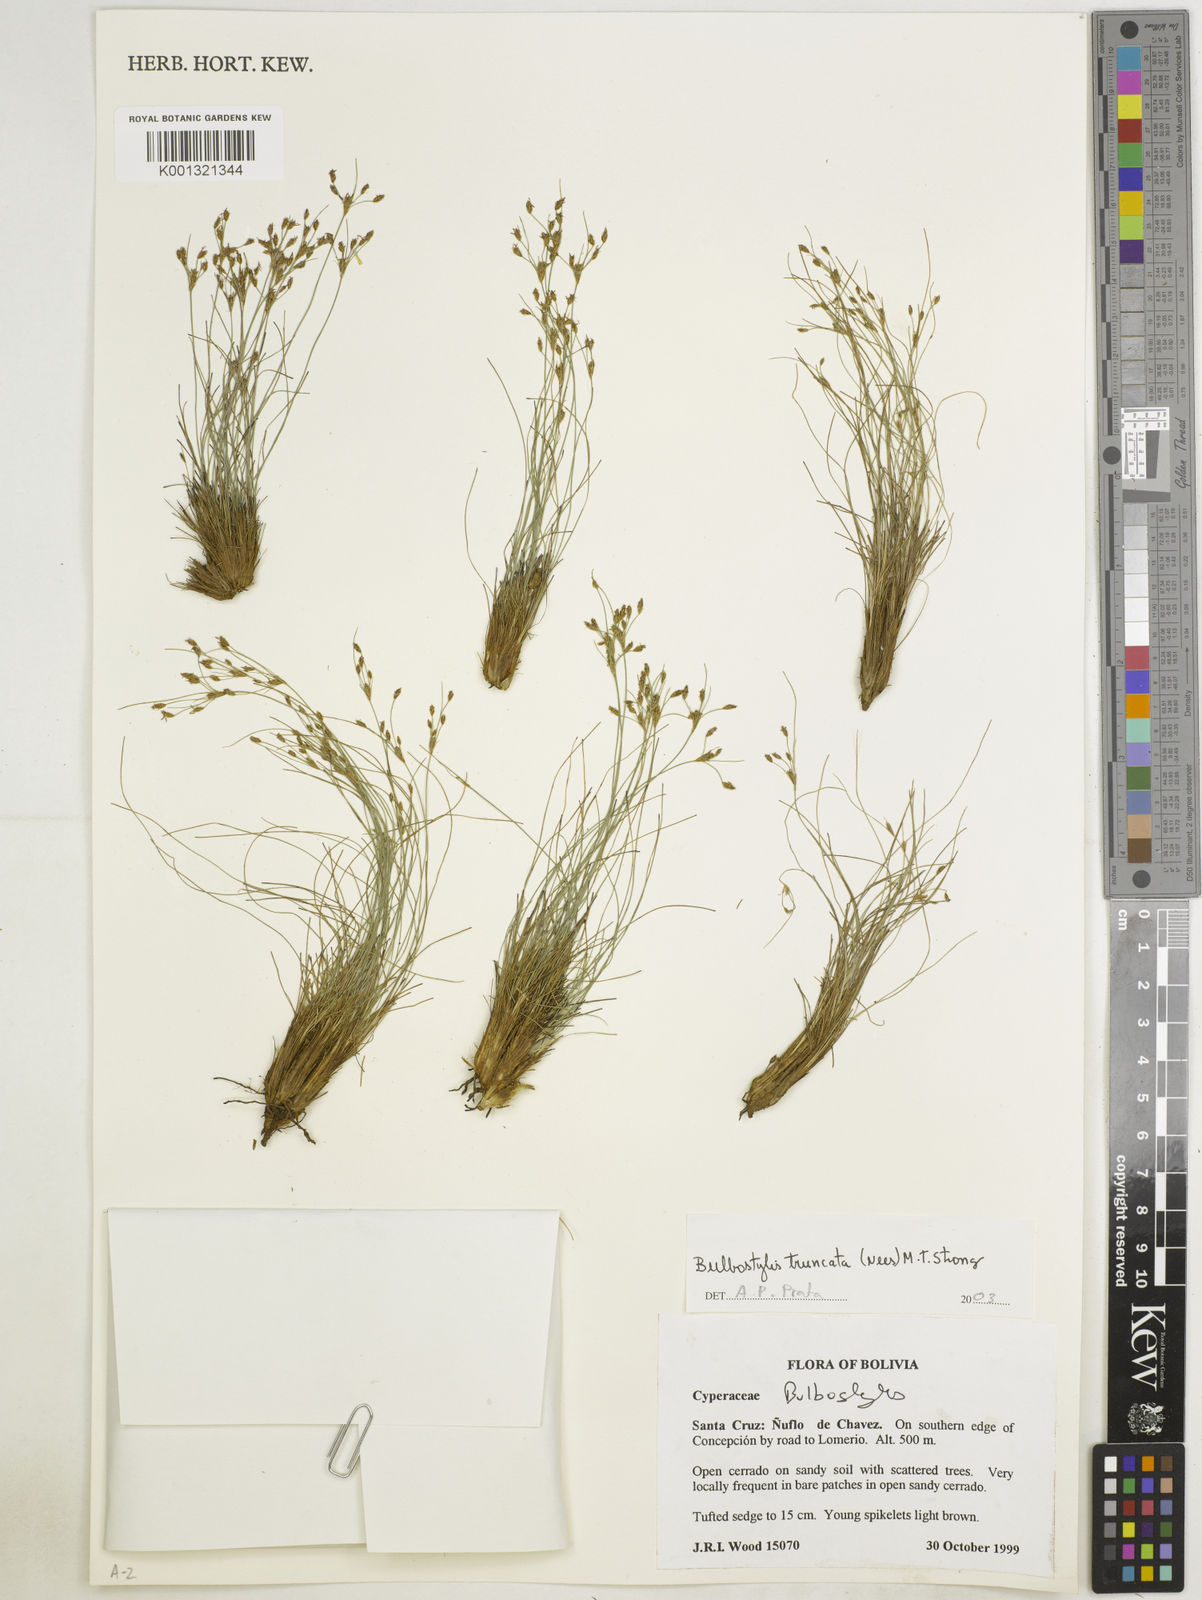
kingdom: Plantae
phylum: Tracheophyta
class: Liliopsida
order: Poales
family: Cyperaceae
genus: Bulbostylis
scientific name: Bulbostylis truncata
